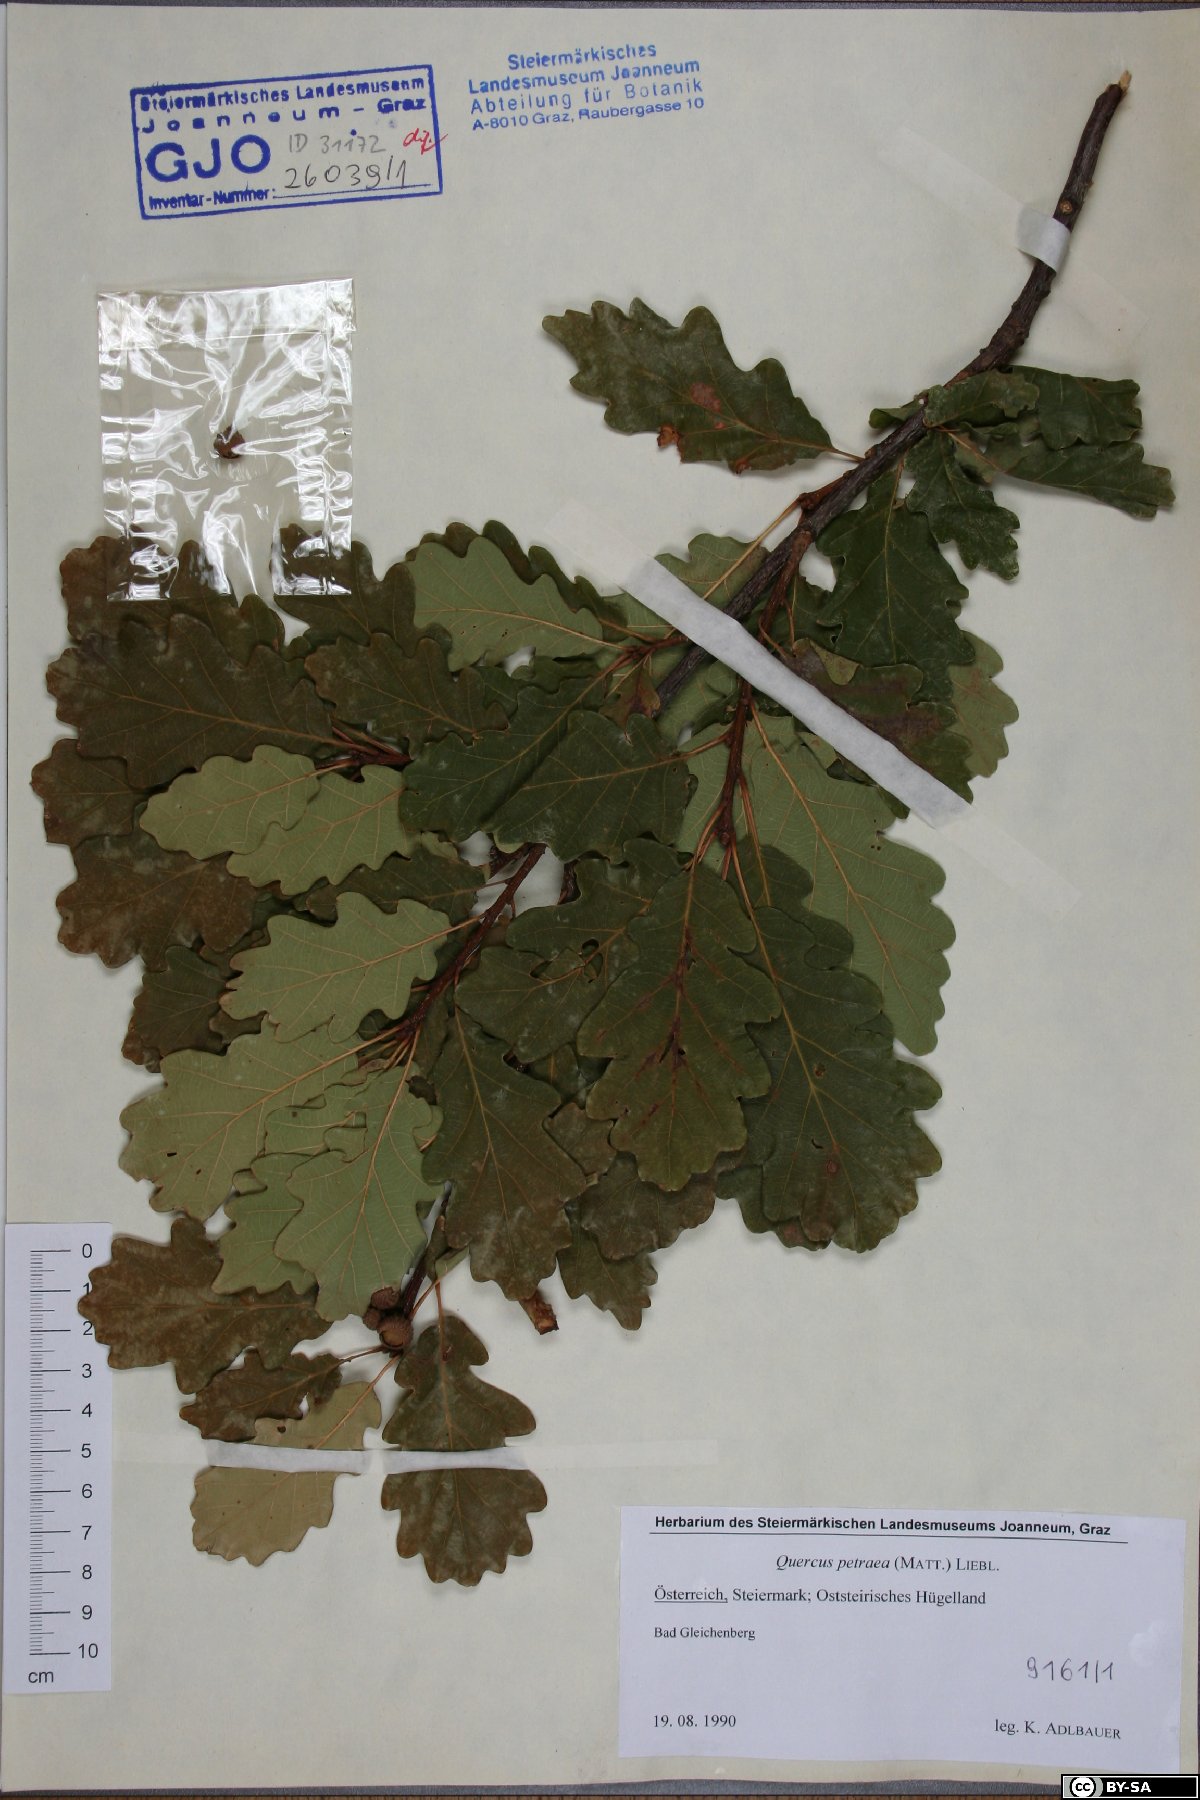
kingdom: Plantae
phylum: Tracheophyta
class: Magnoliopsida
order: Fagales
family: Fagaceae
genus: Quercus
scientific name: Quercus petraea
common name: Sessile oak
